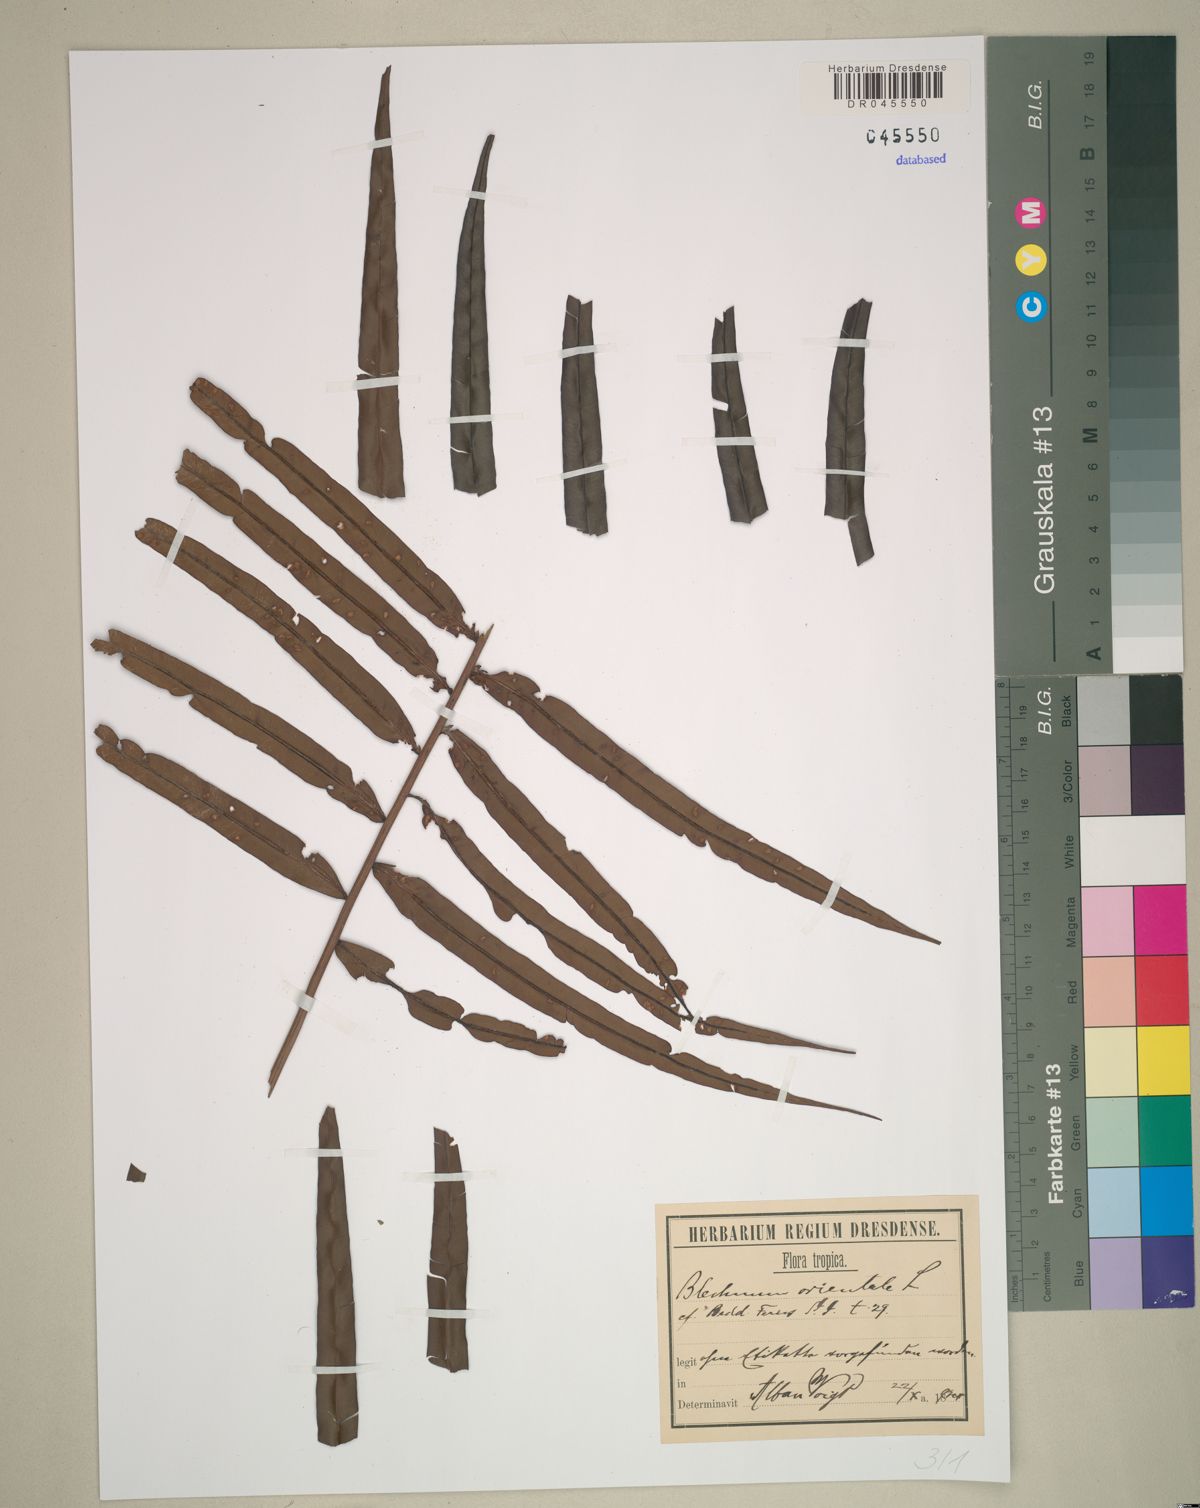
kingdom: Plantae
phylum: Tracheophyta
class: Polypodiopsida
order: Polypodiales
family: Blechnaceae
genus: Blechnopsis
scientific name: Blechnopsis orientalis
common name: Oriental blechnum
